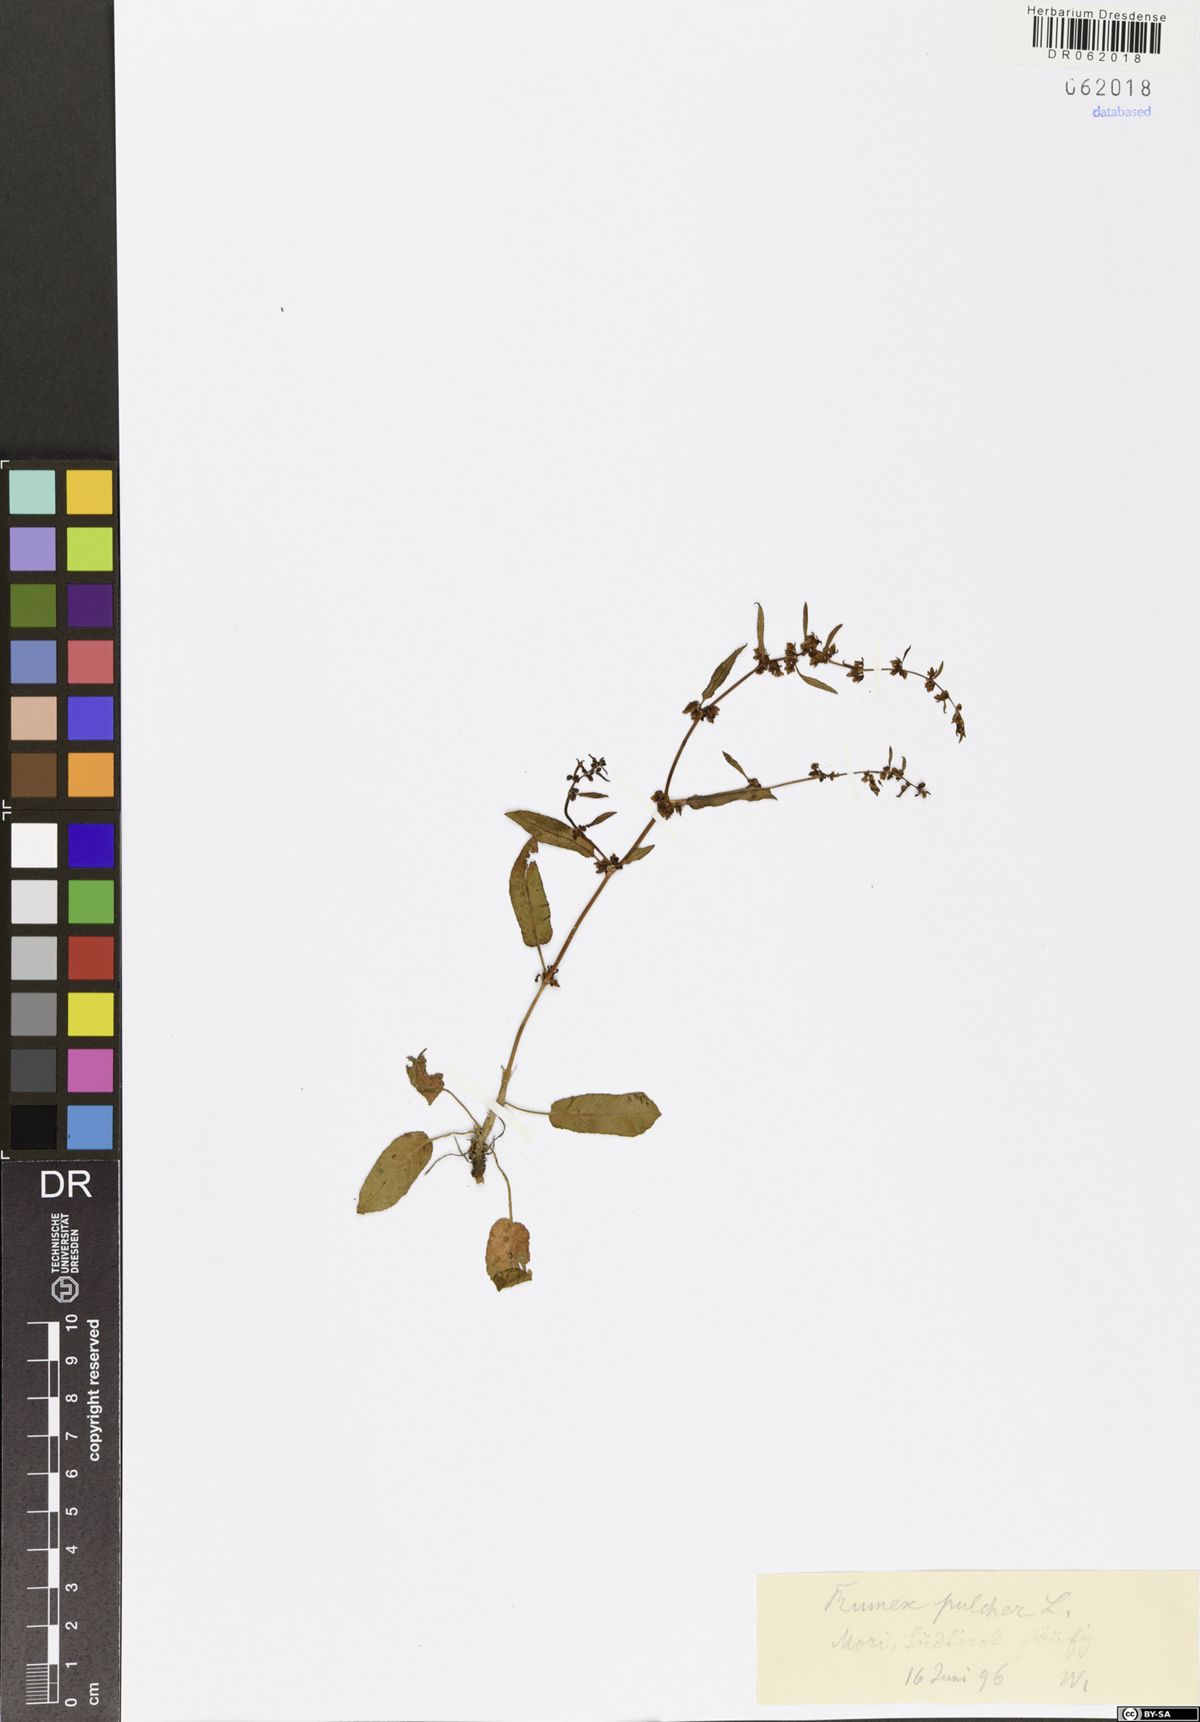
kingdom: Plantae
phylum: Tracheophyta
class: Magnoliopsida
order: Caryophyllales
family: Polygonaceae
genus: Rumex
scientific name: Rumex pulcher
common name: Fiddle dock
